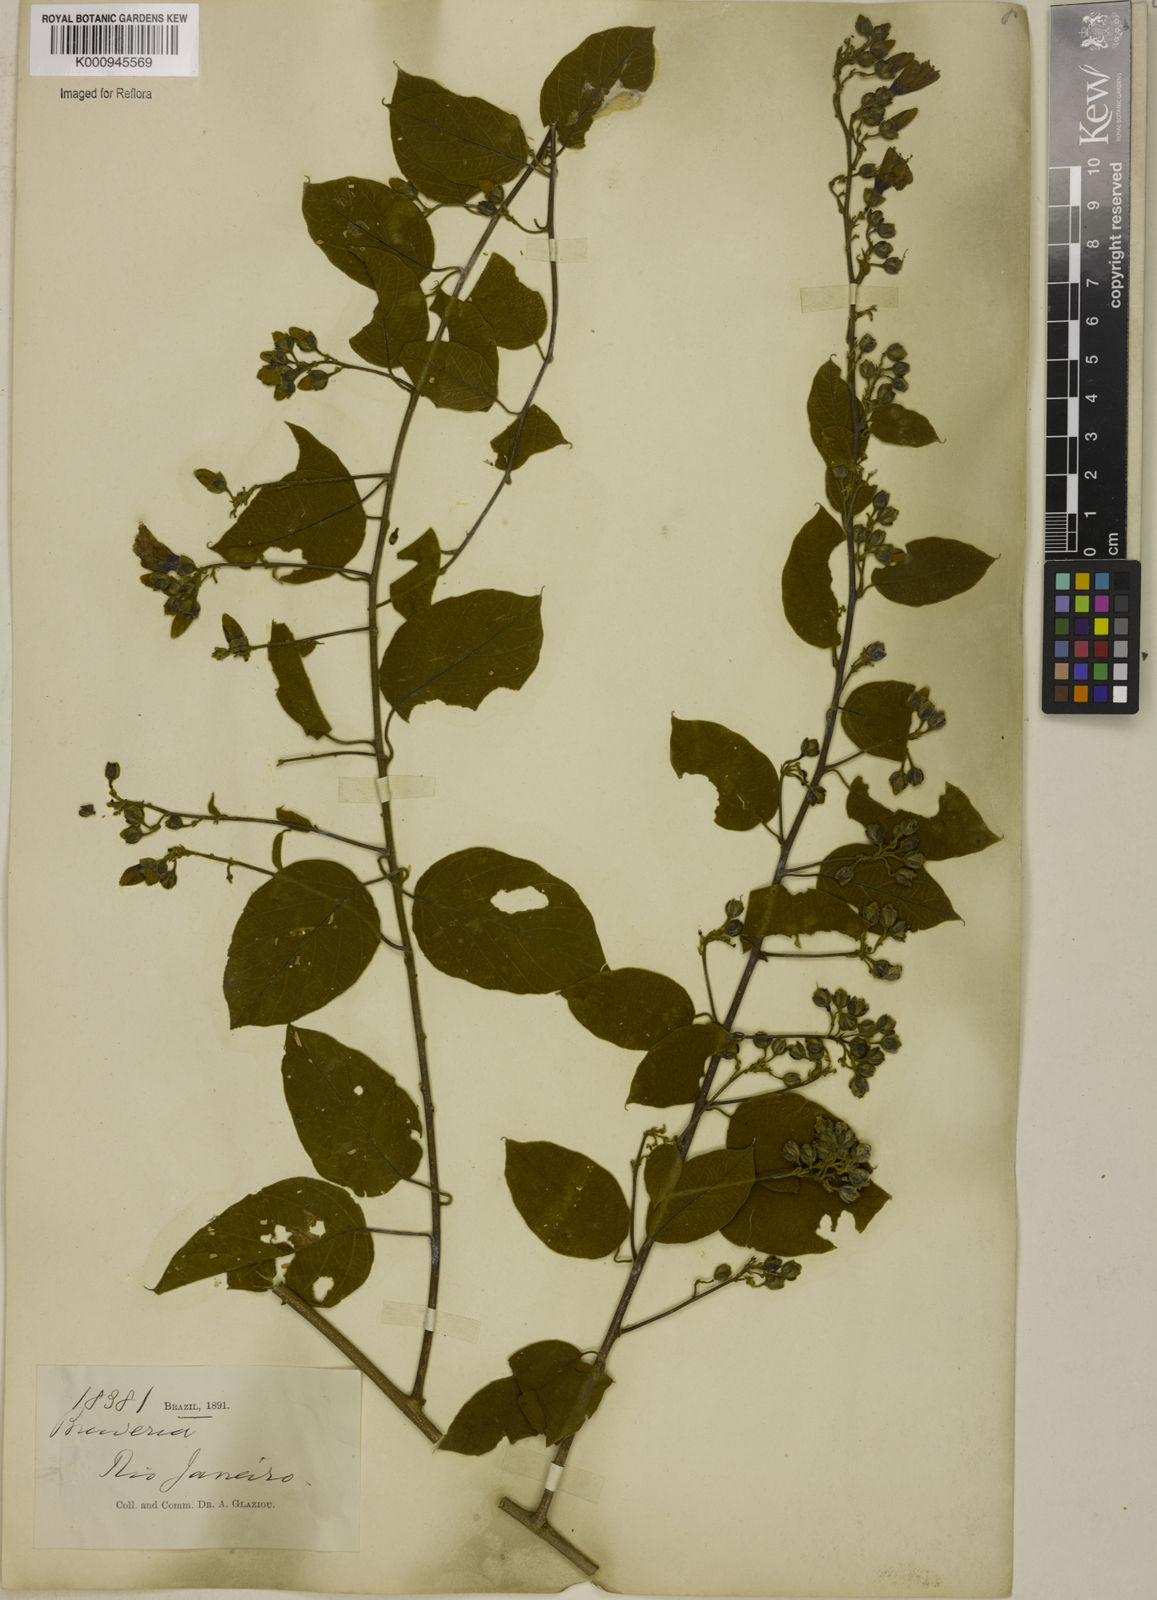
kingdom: Plantae
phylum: Tracheophyta
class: Magnoliopsida
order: Solanales
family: Convolvulaceae
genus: Bonamia
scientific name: Bonamia agrostopolis
